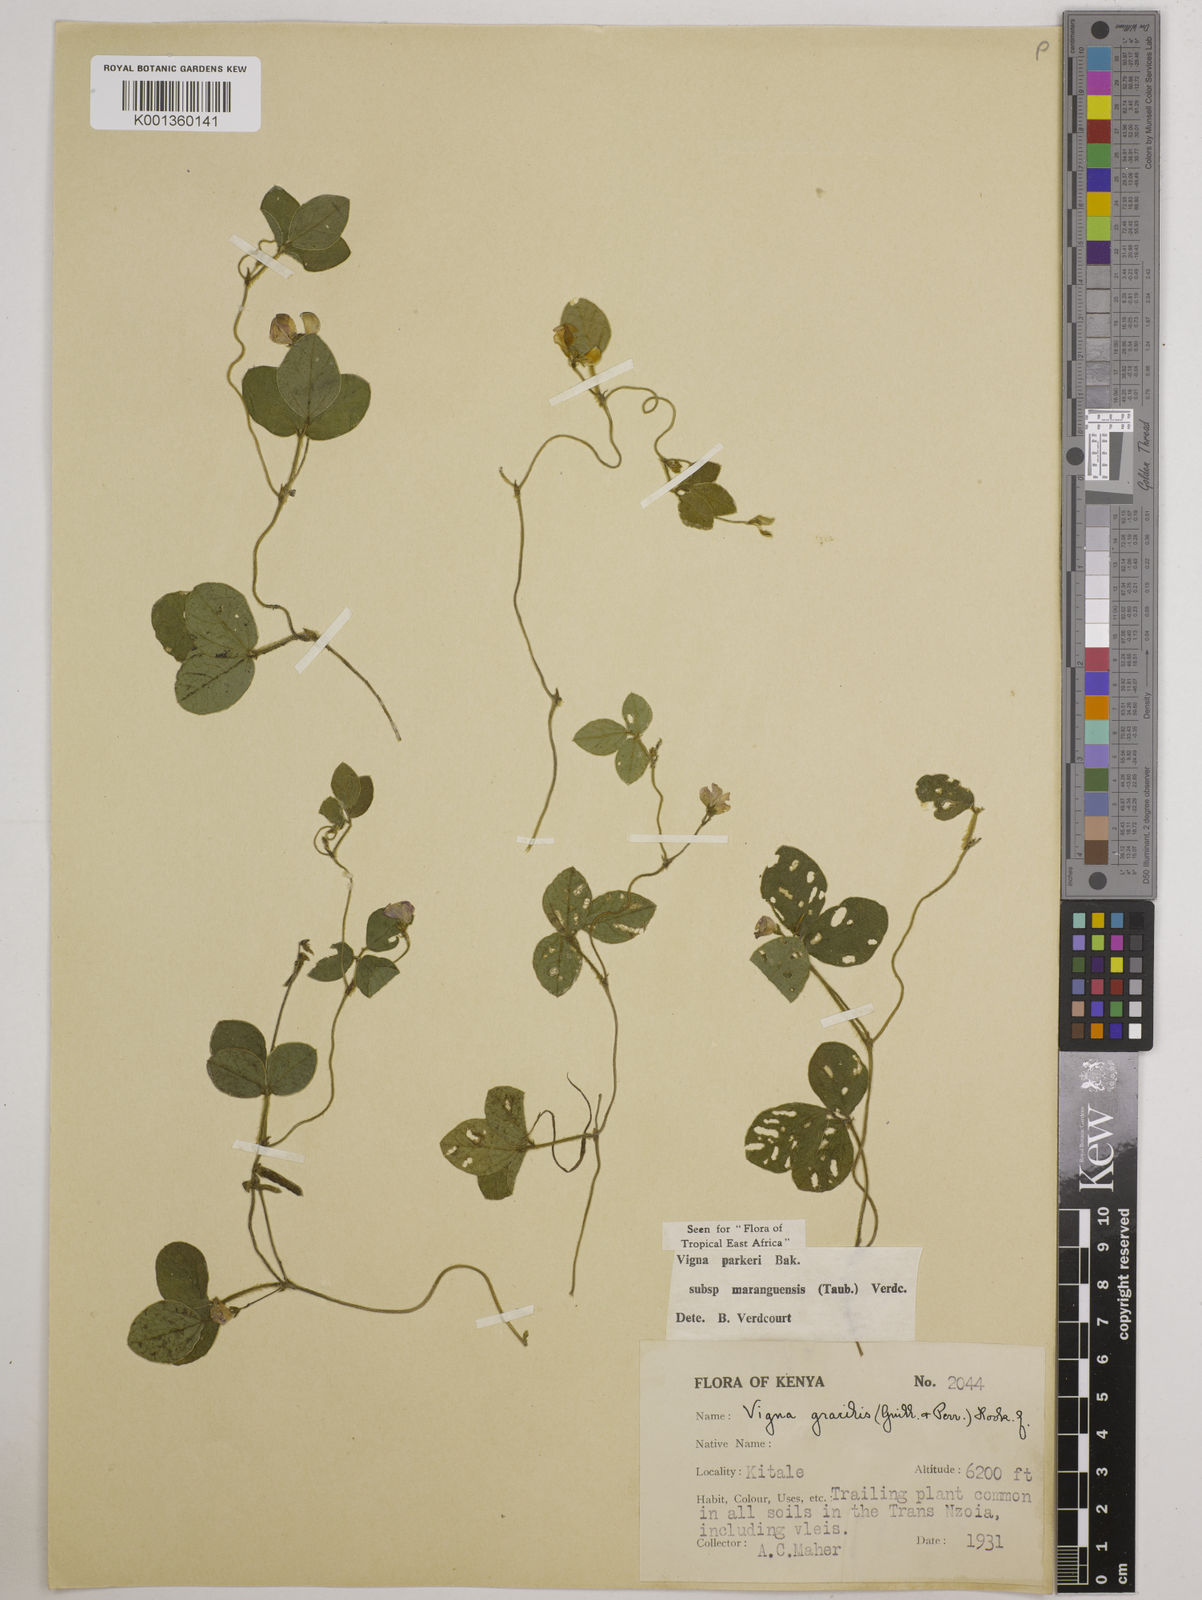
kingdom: Plantae
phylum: Tracheophyta
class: Magnoliopsida
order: Fabales
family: Fabaceae
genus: Vigna
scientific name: Vigna
